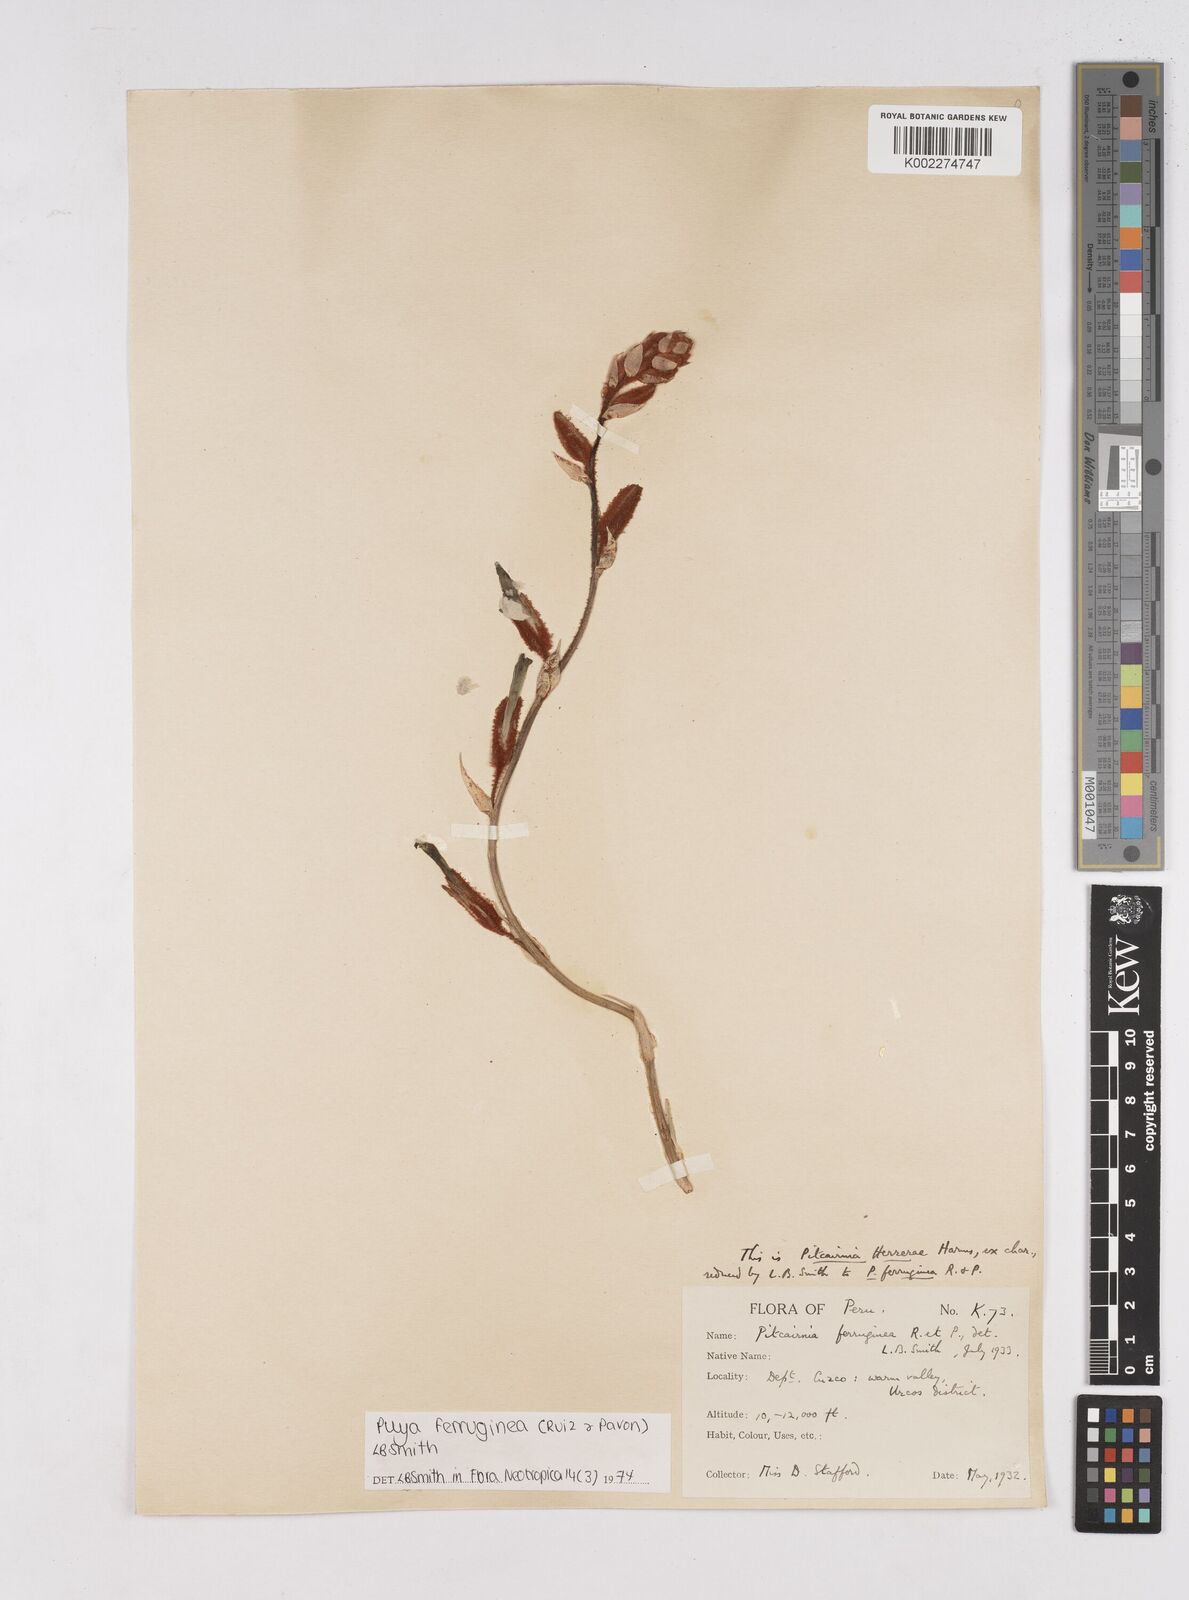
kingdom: Plantae
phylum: Tracheophyta
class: Liliopsida
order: Poales
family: Bromeliaceae
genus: Puya
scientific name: Puya ferruginea
